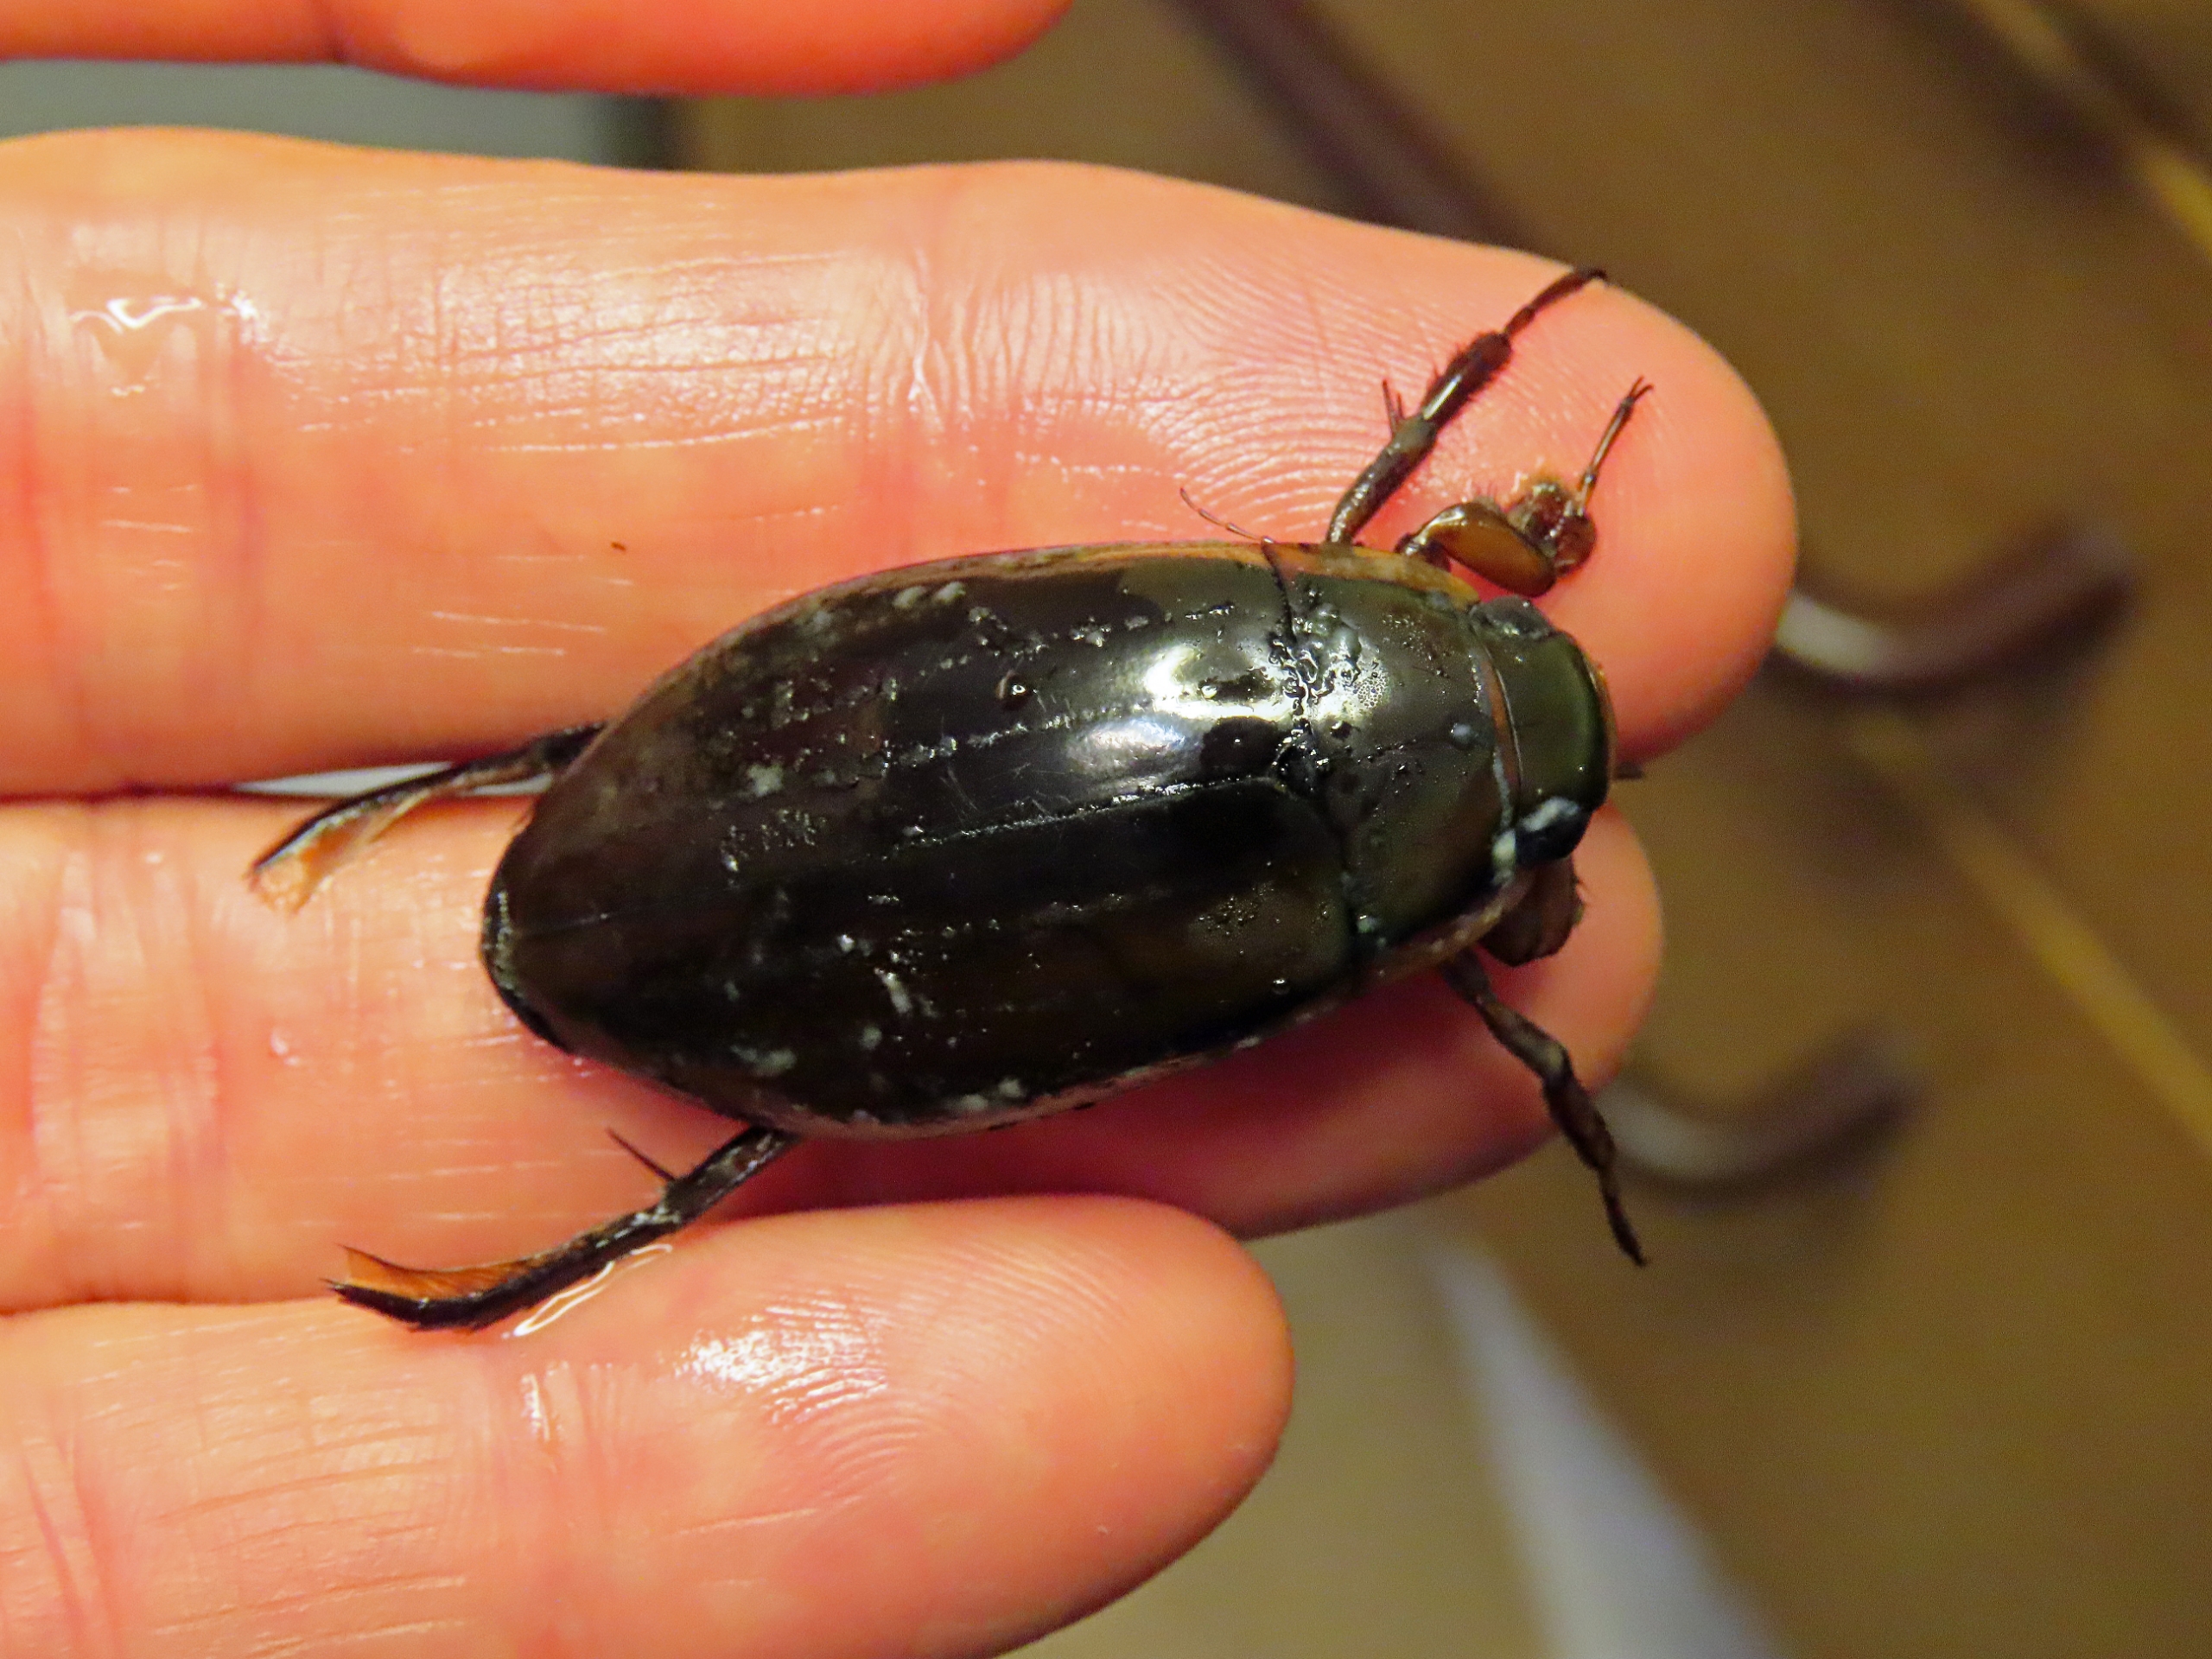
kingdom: Animalia
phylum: Arthropoda
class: Insecta
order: Coleoptera
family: Dytiscidae
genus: Dytiscus
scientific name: Dytiscus dimidiatus
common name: Rundhoftet vandkalv
